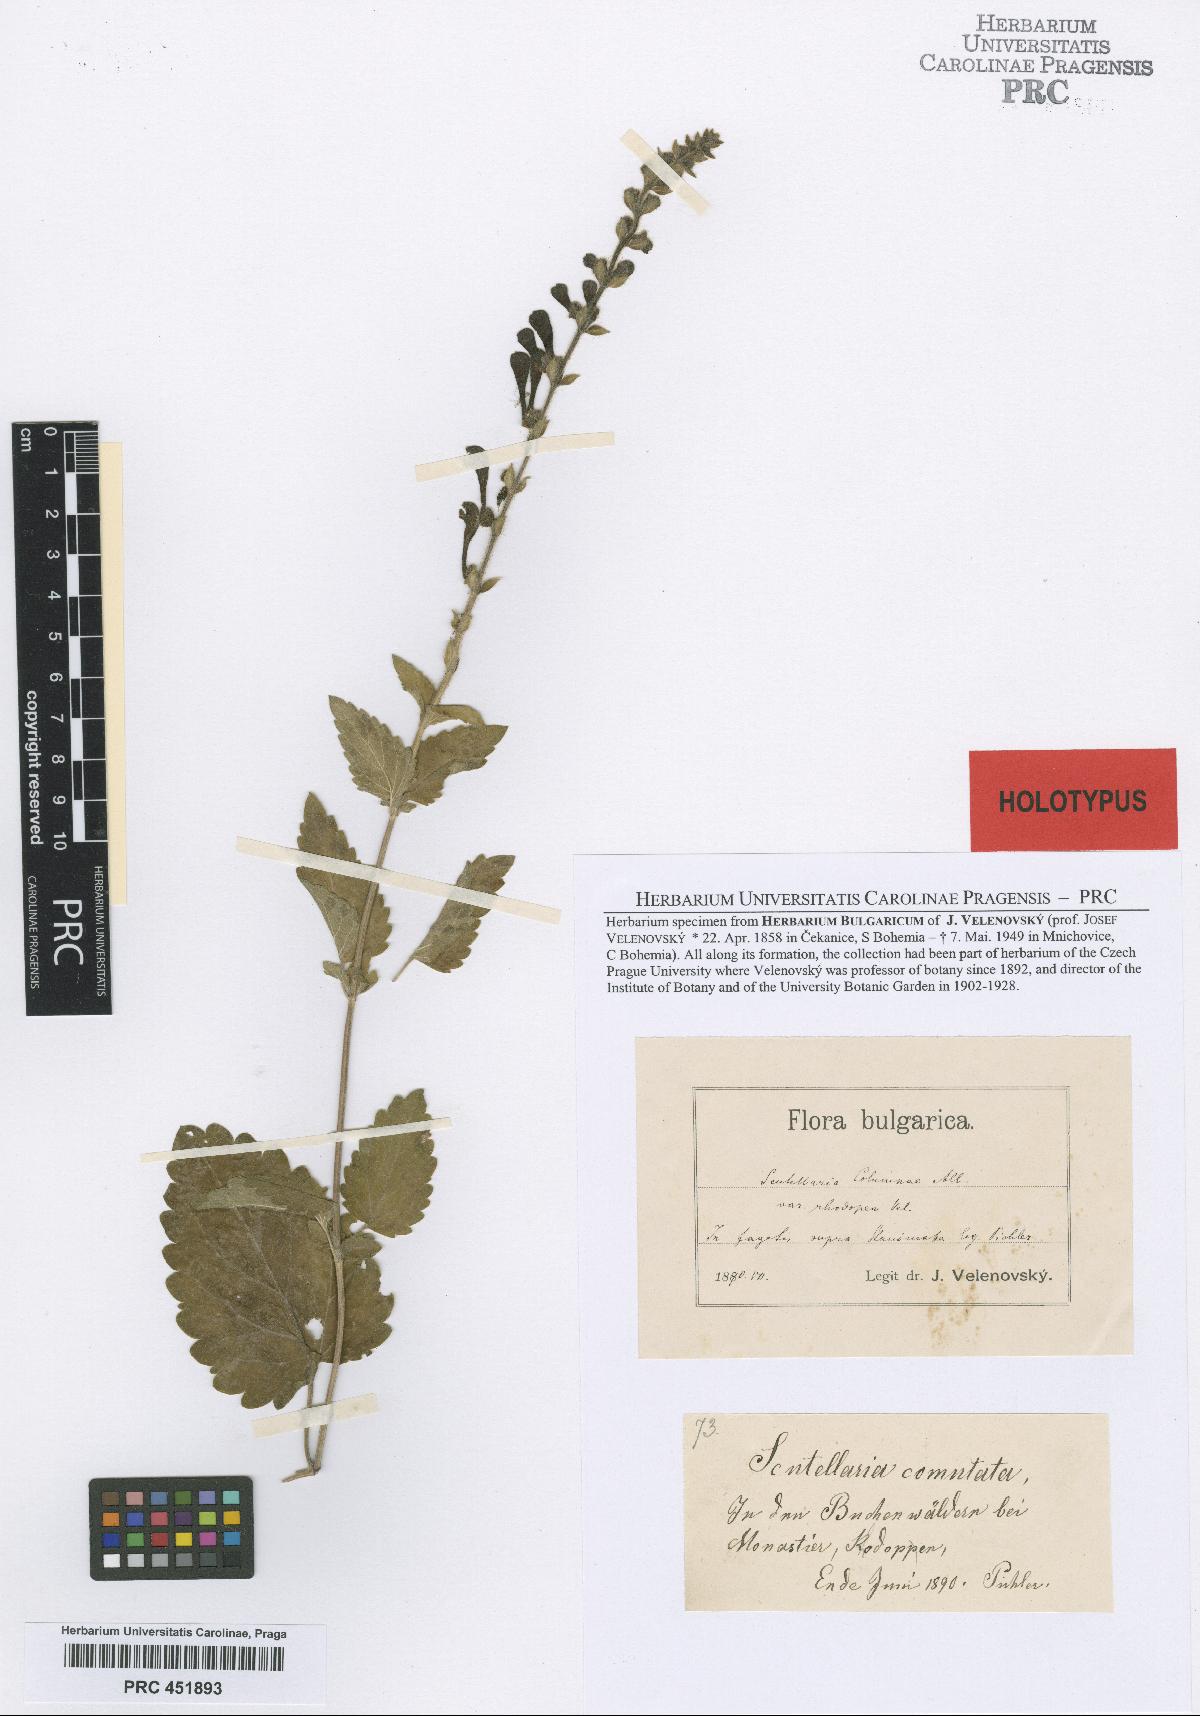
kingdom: Plantae
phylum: Tracheophyta
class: Magnoliopsida
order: Lamiales
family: Lamiaceae
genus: Scutellaria
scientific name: Scutellaria columnae
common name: Large skullcap
